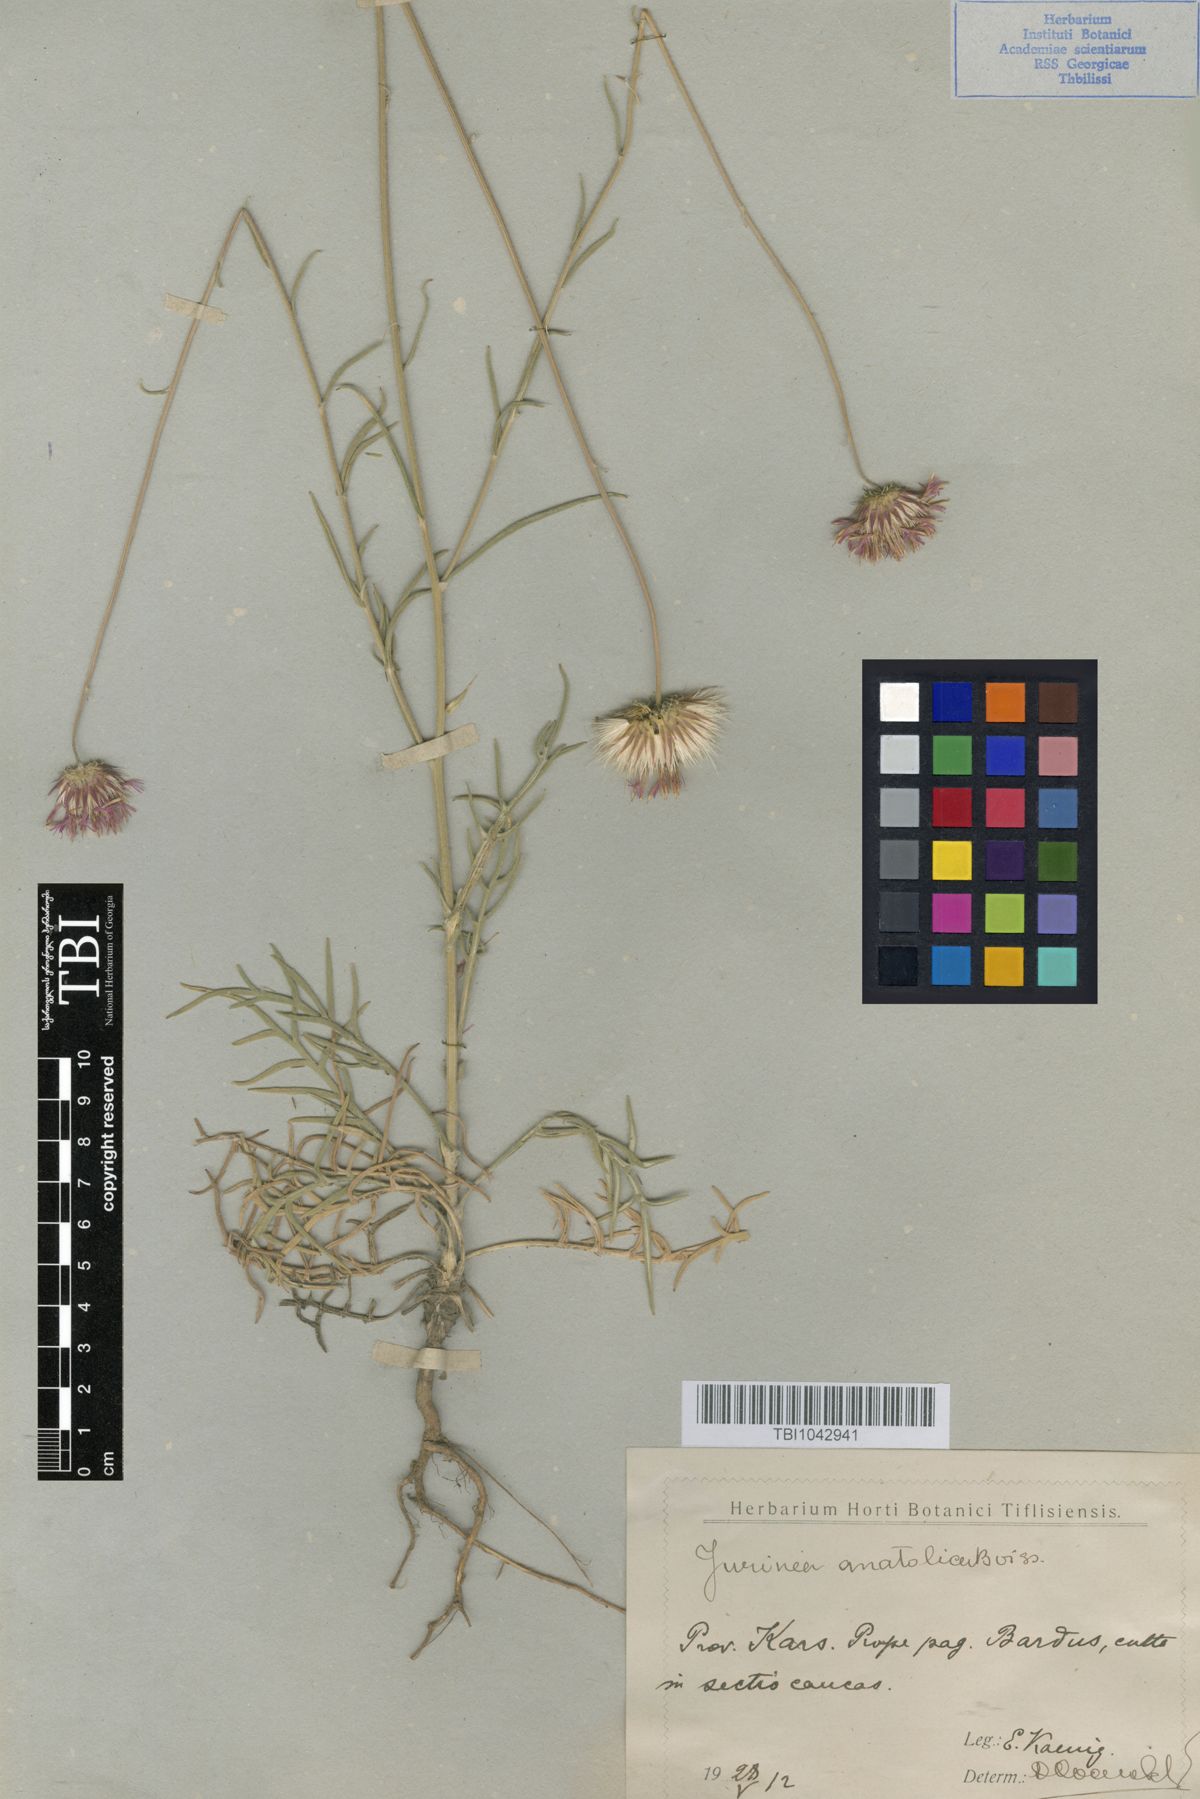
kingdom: Plantae
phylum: Tracheophyta
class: Magnoliopsida
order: Asterales
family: Asteraceae
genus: Jurinea
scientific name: Jurinea consanguinea
